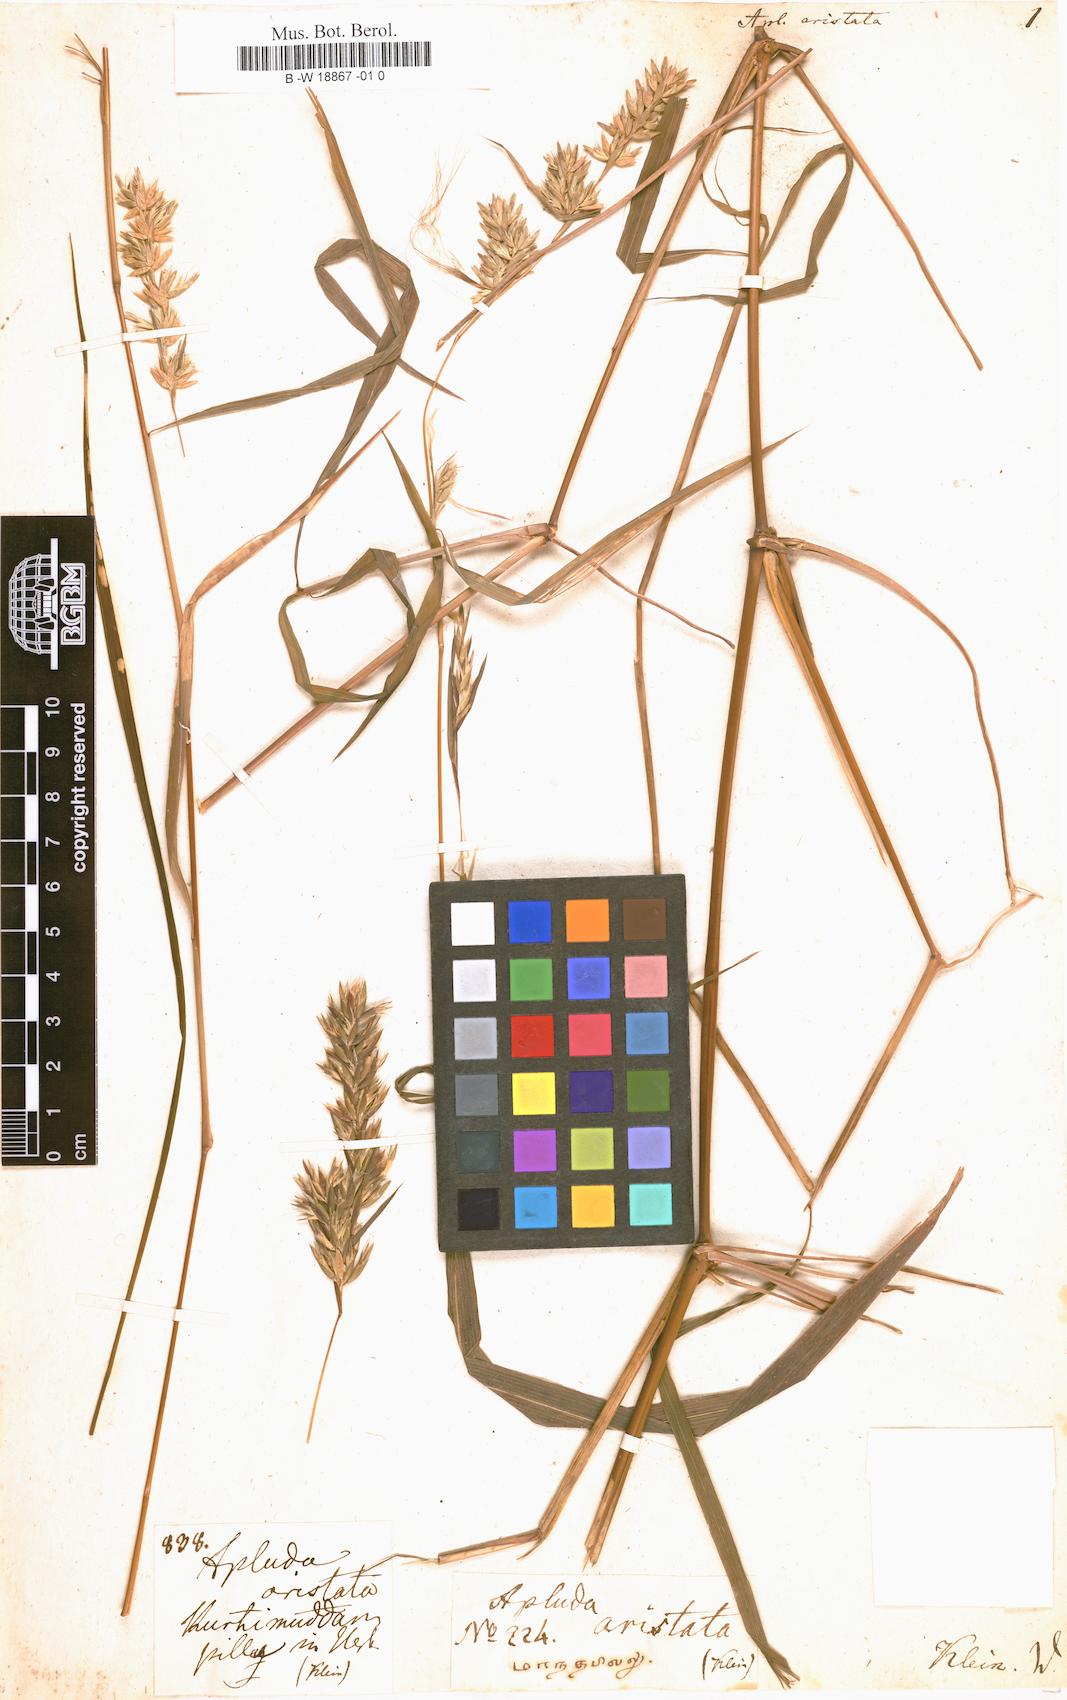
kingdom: Plantae
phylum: Tracheophyta
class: Liliopsida
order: Poales
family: Poaceae
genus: Apluda
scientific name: Apluda mutica
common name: Mauritian grass
